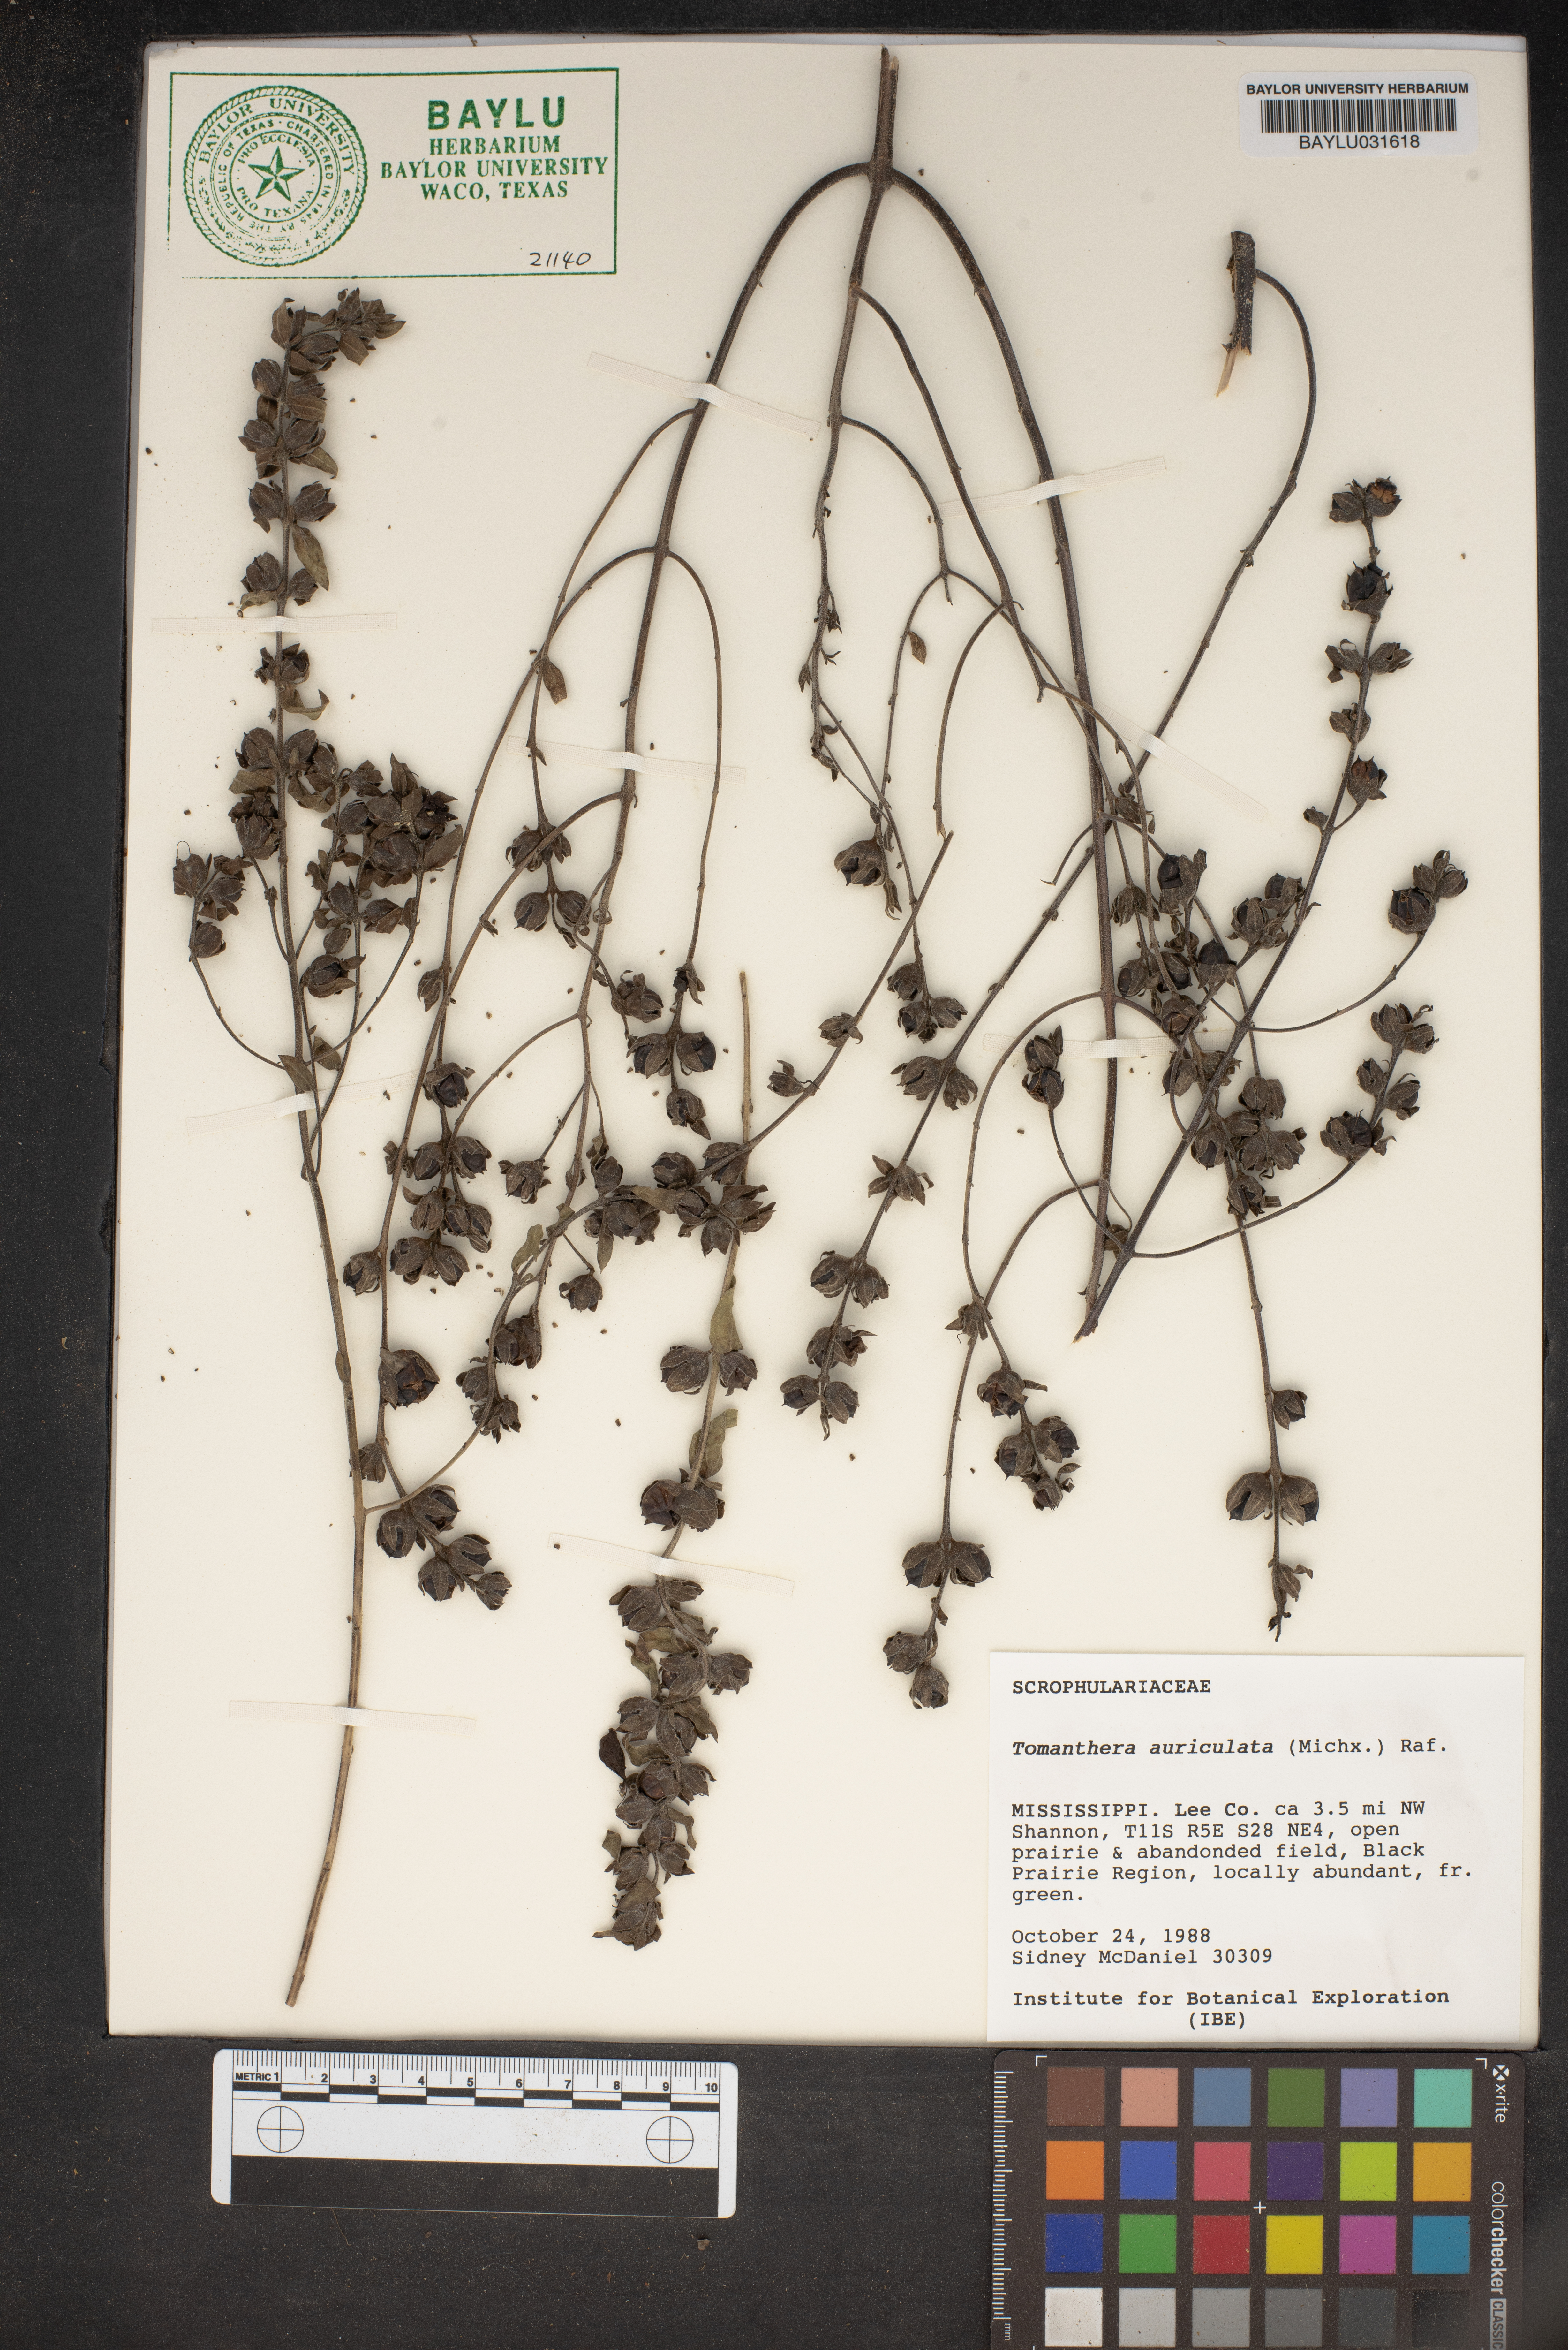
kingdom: Plantae
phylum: Tracheophyta
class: Magnoliopsida
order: Lamiales
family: Orobanchaceae
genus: Agalinis
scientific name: Agalinis auriculata
